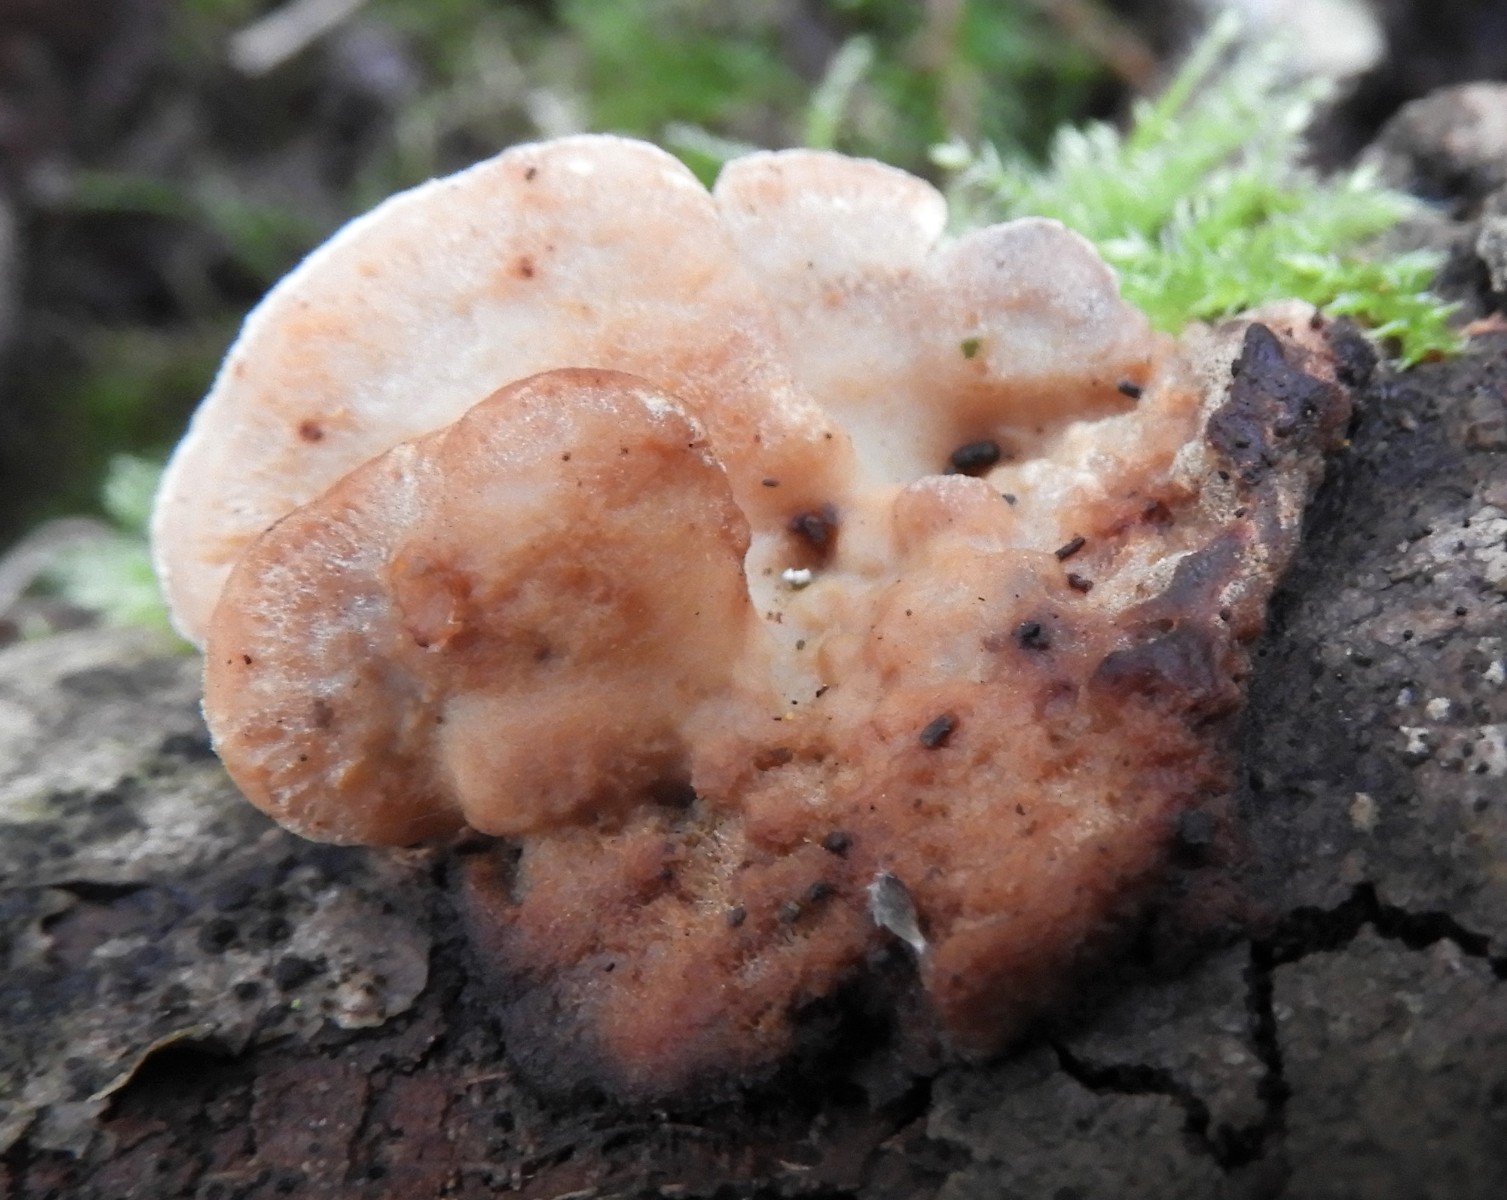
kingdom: Fungi
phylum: Basidiomycota
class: Agaricomycetes
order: Polyporales
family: Incrustoporiaceae
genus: Skeletocutis
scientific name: Skeletocutis nemoralis
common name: stor krystalporesvamp
